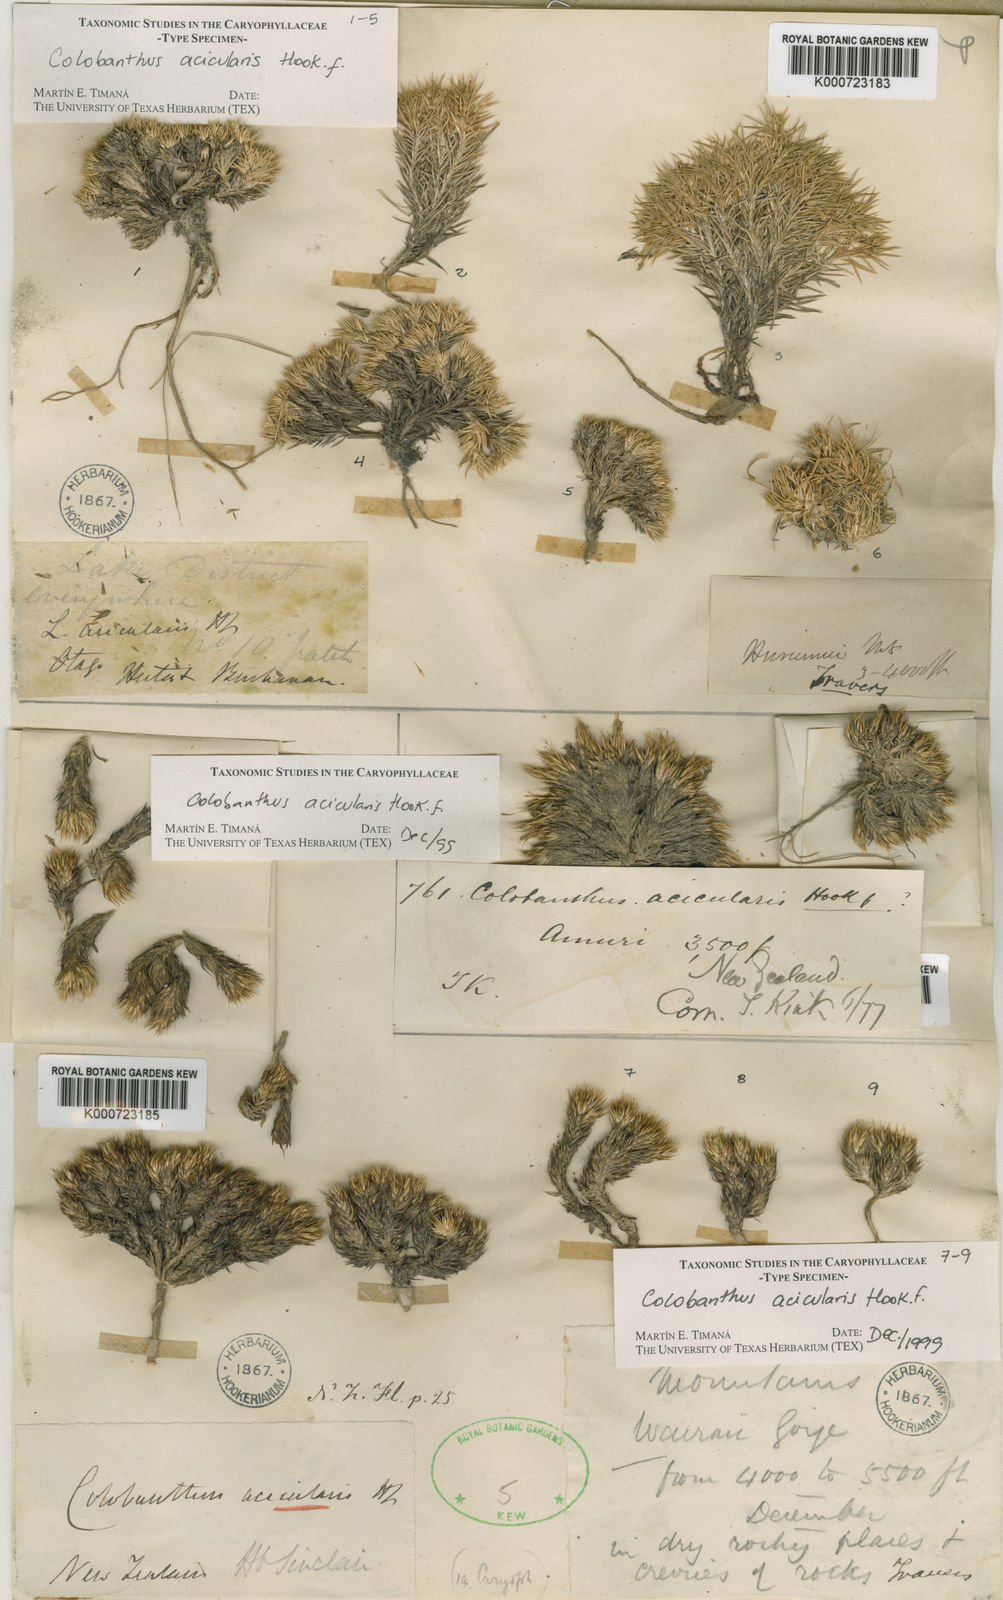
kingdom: Plantae
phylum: Tracheophyta
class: Magnoliopsida
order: Caryophyllales
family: Caryophyllaceae
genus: Colobanthus
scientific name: Colobanthus acicularis
